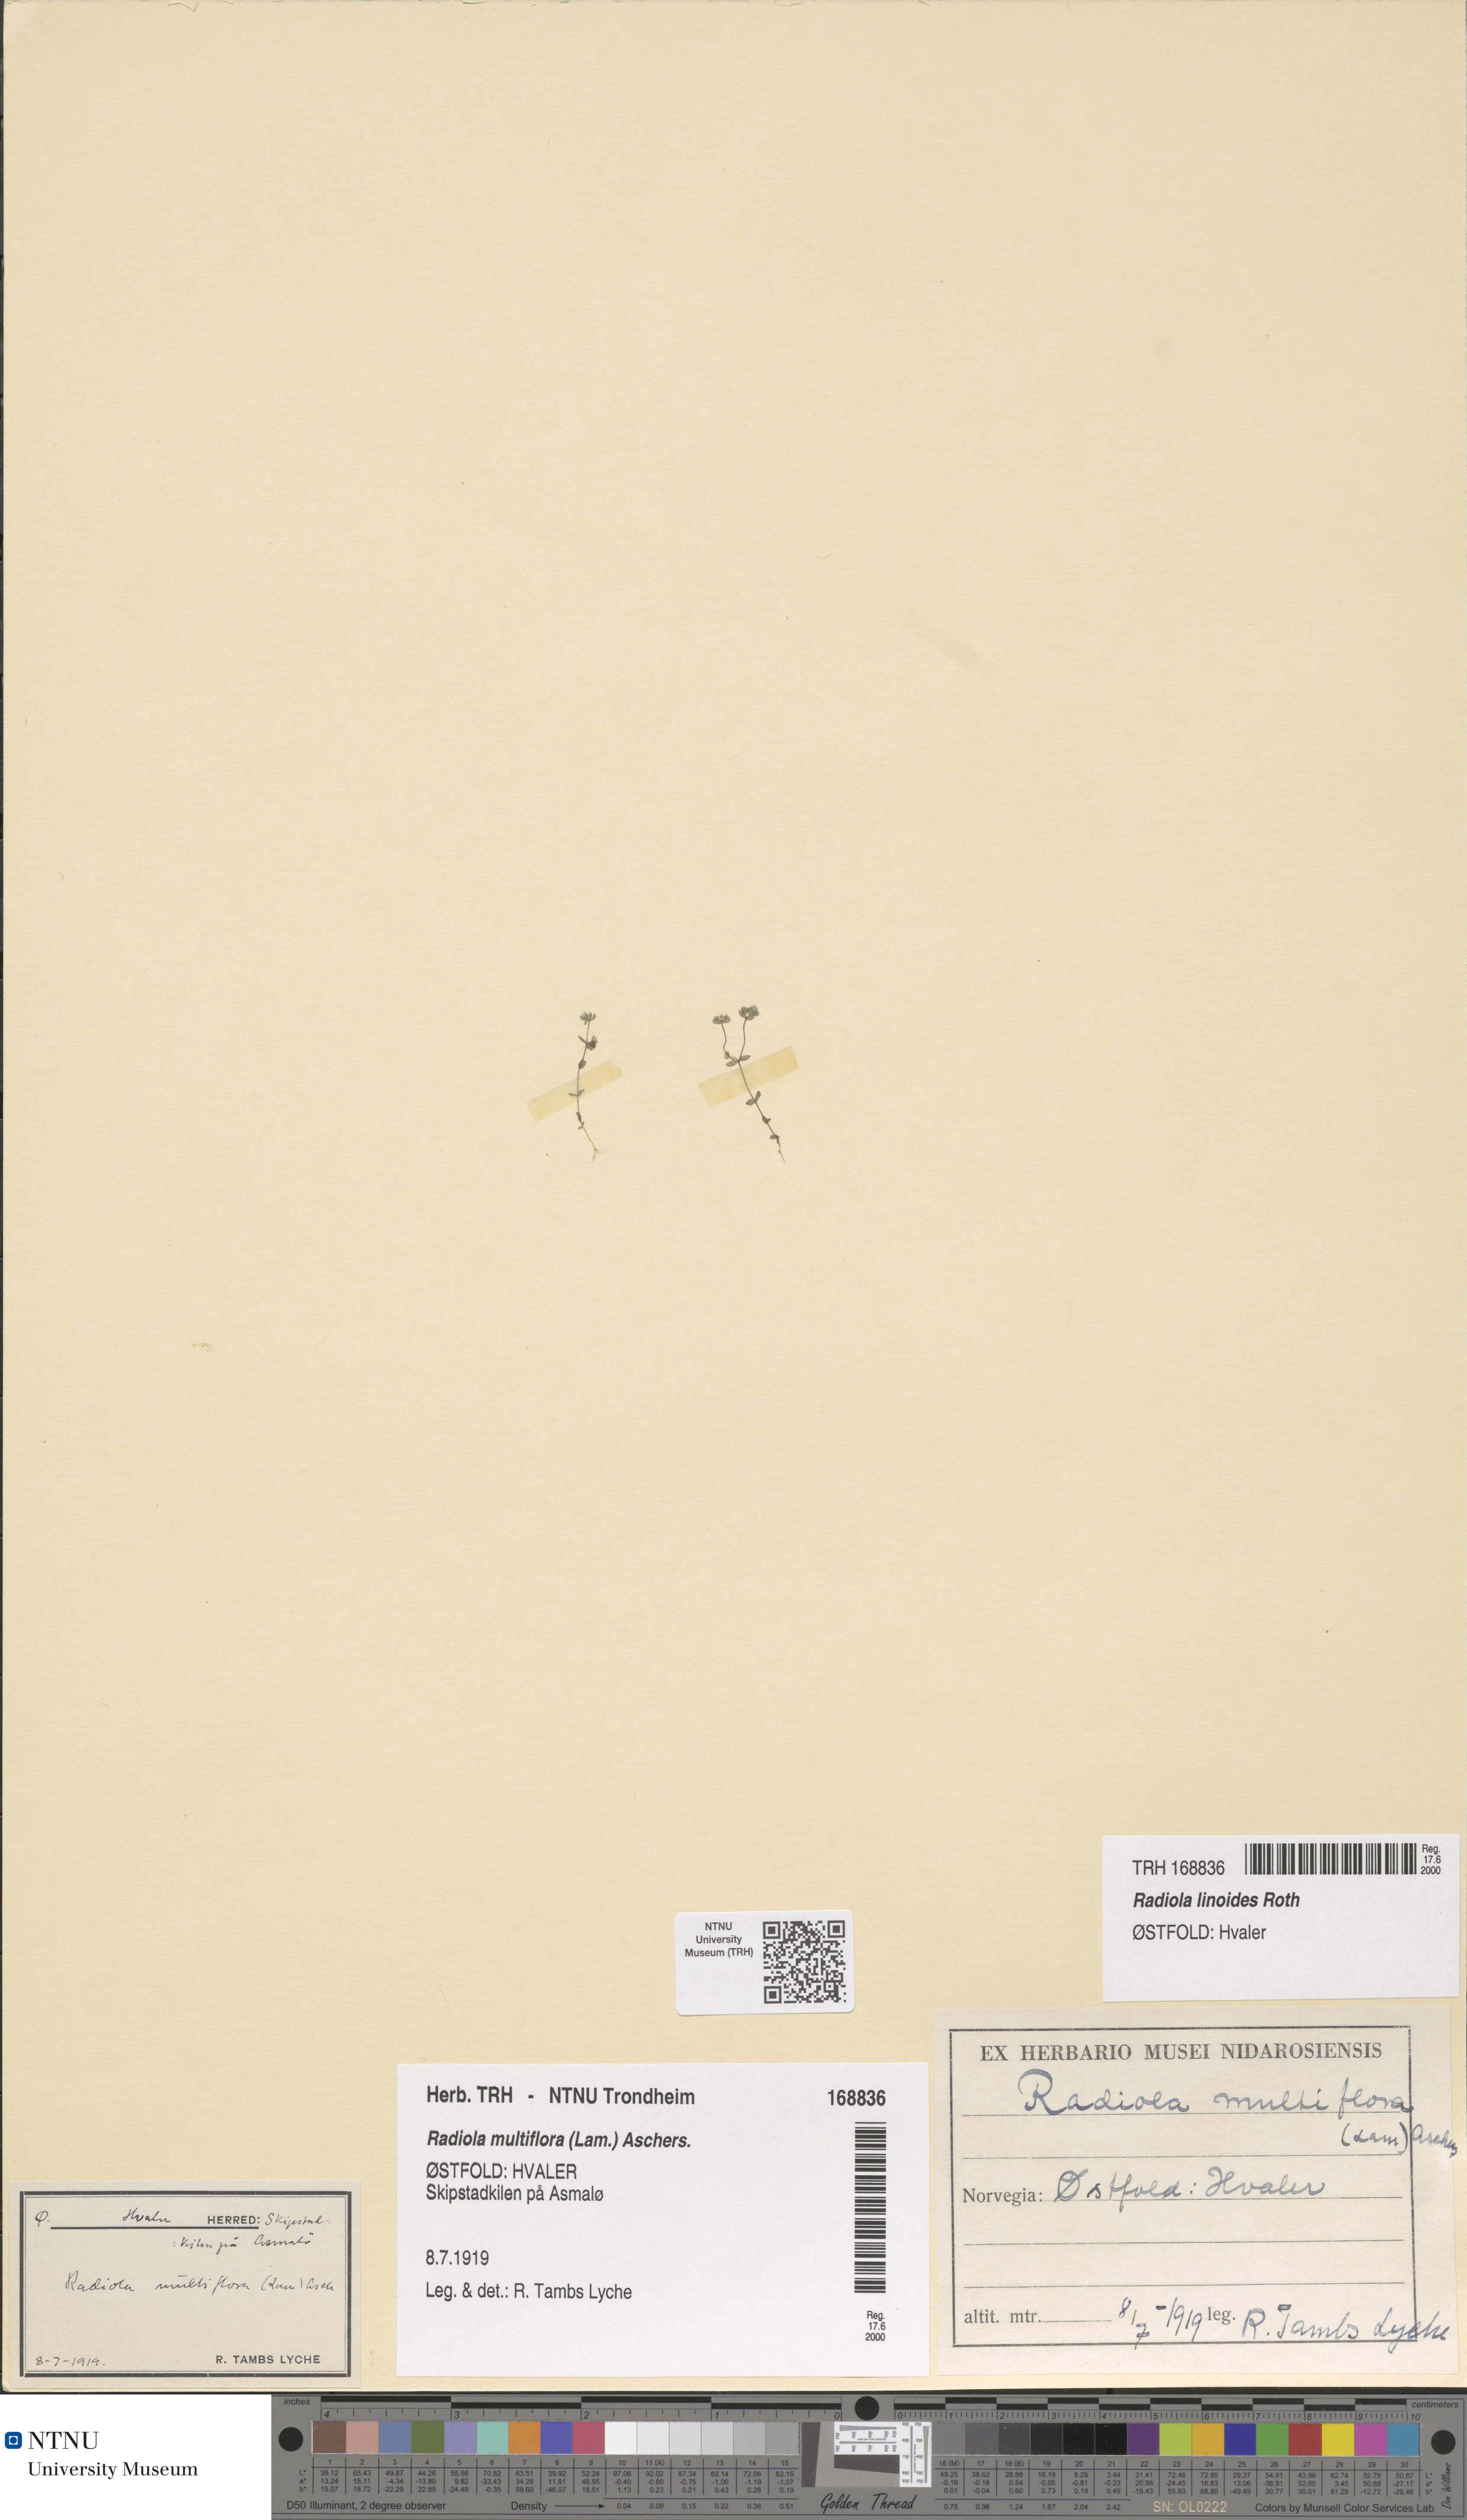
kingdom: Plantae
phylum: Tracheophyta
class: Magnoliopsida
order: Malpighiales
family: Linaceae
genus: Radiola
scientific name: Radiola linoides
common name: Allseed
